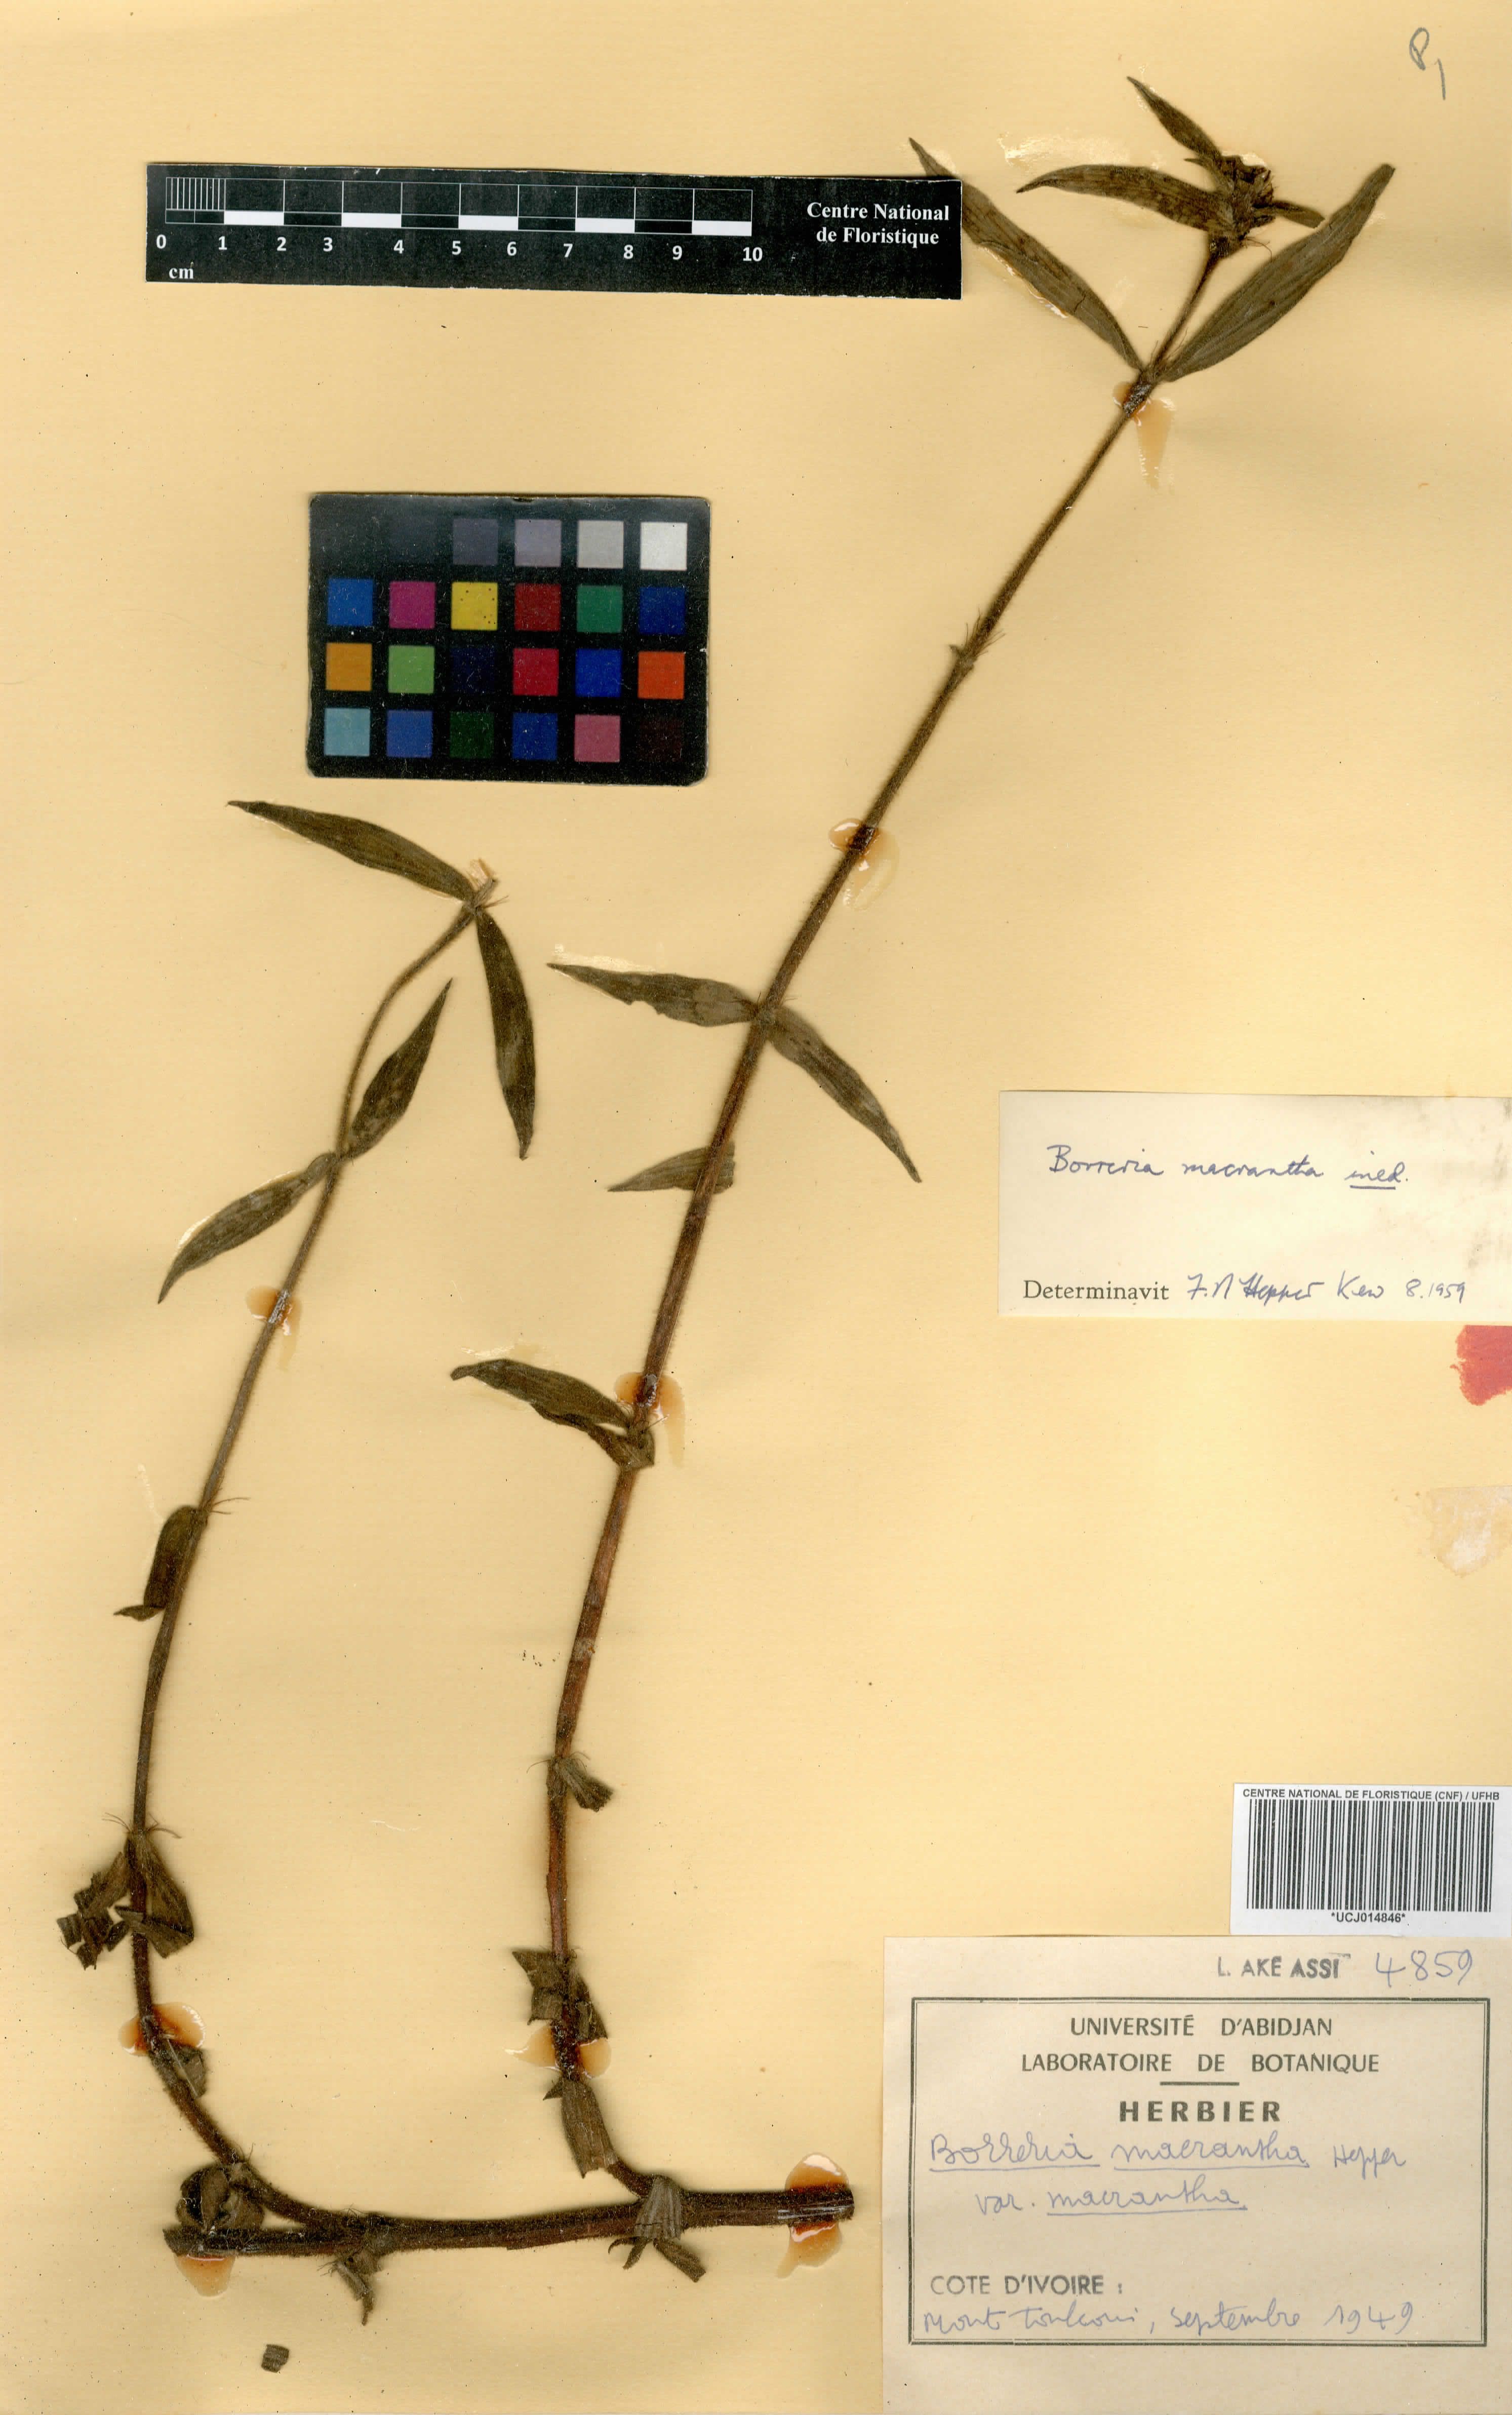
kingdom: Plantae
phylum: Tracheophyta
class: Magnoliopsida
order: Gentianales
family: Rubiaceae
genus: Spermacoce
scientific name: Spermacoce ivorensis
